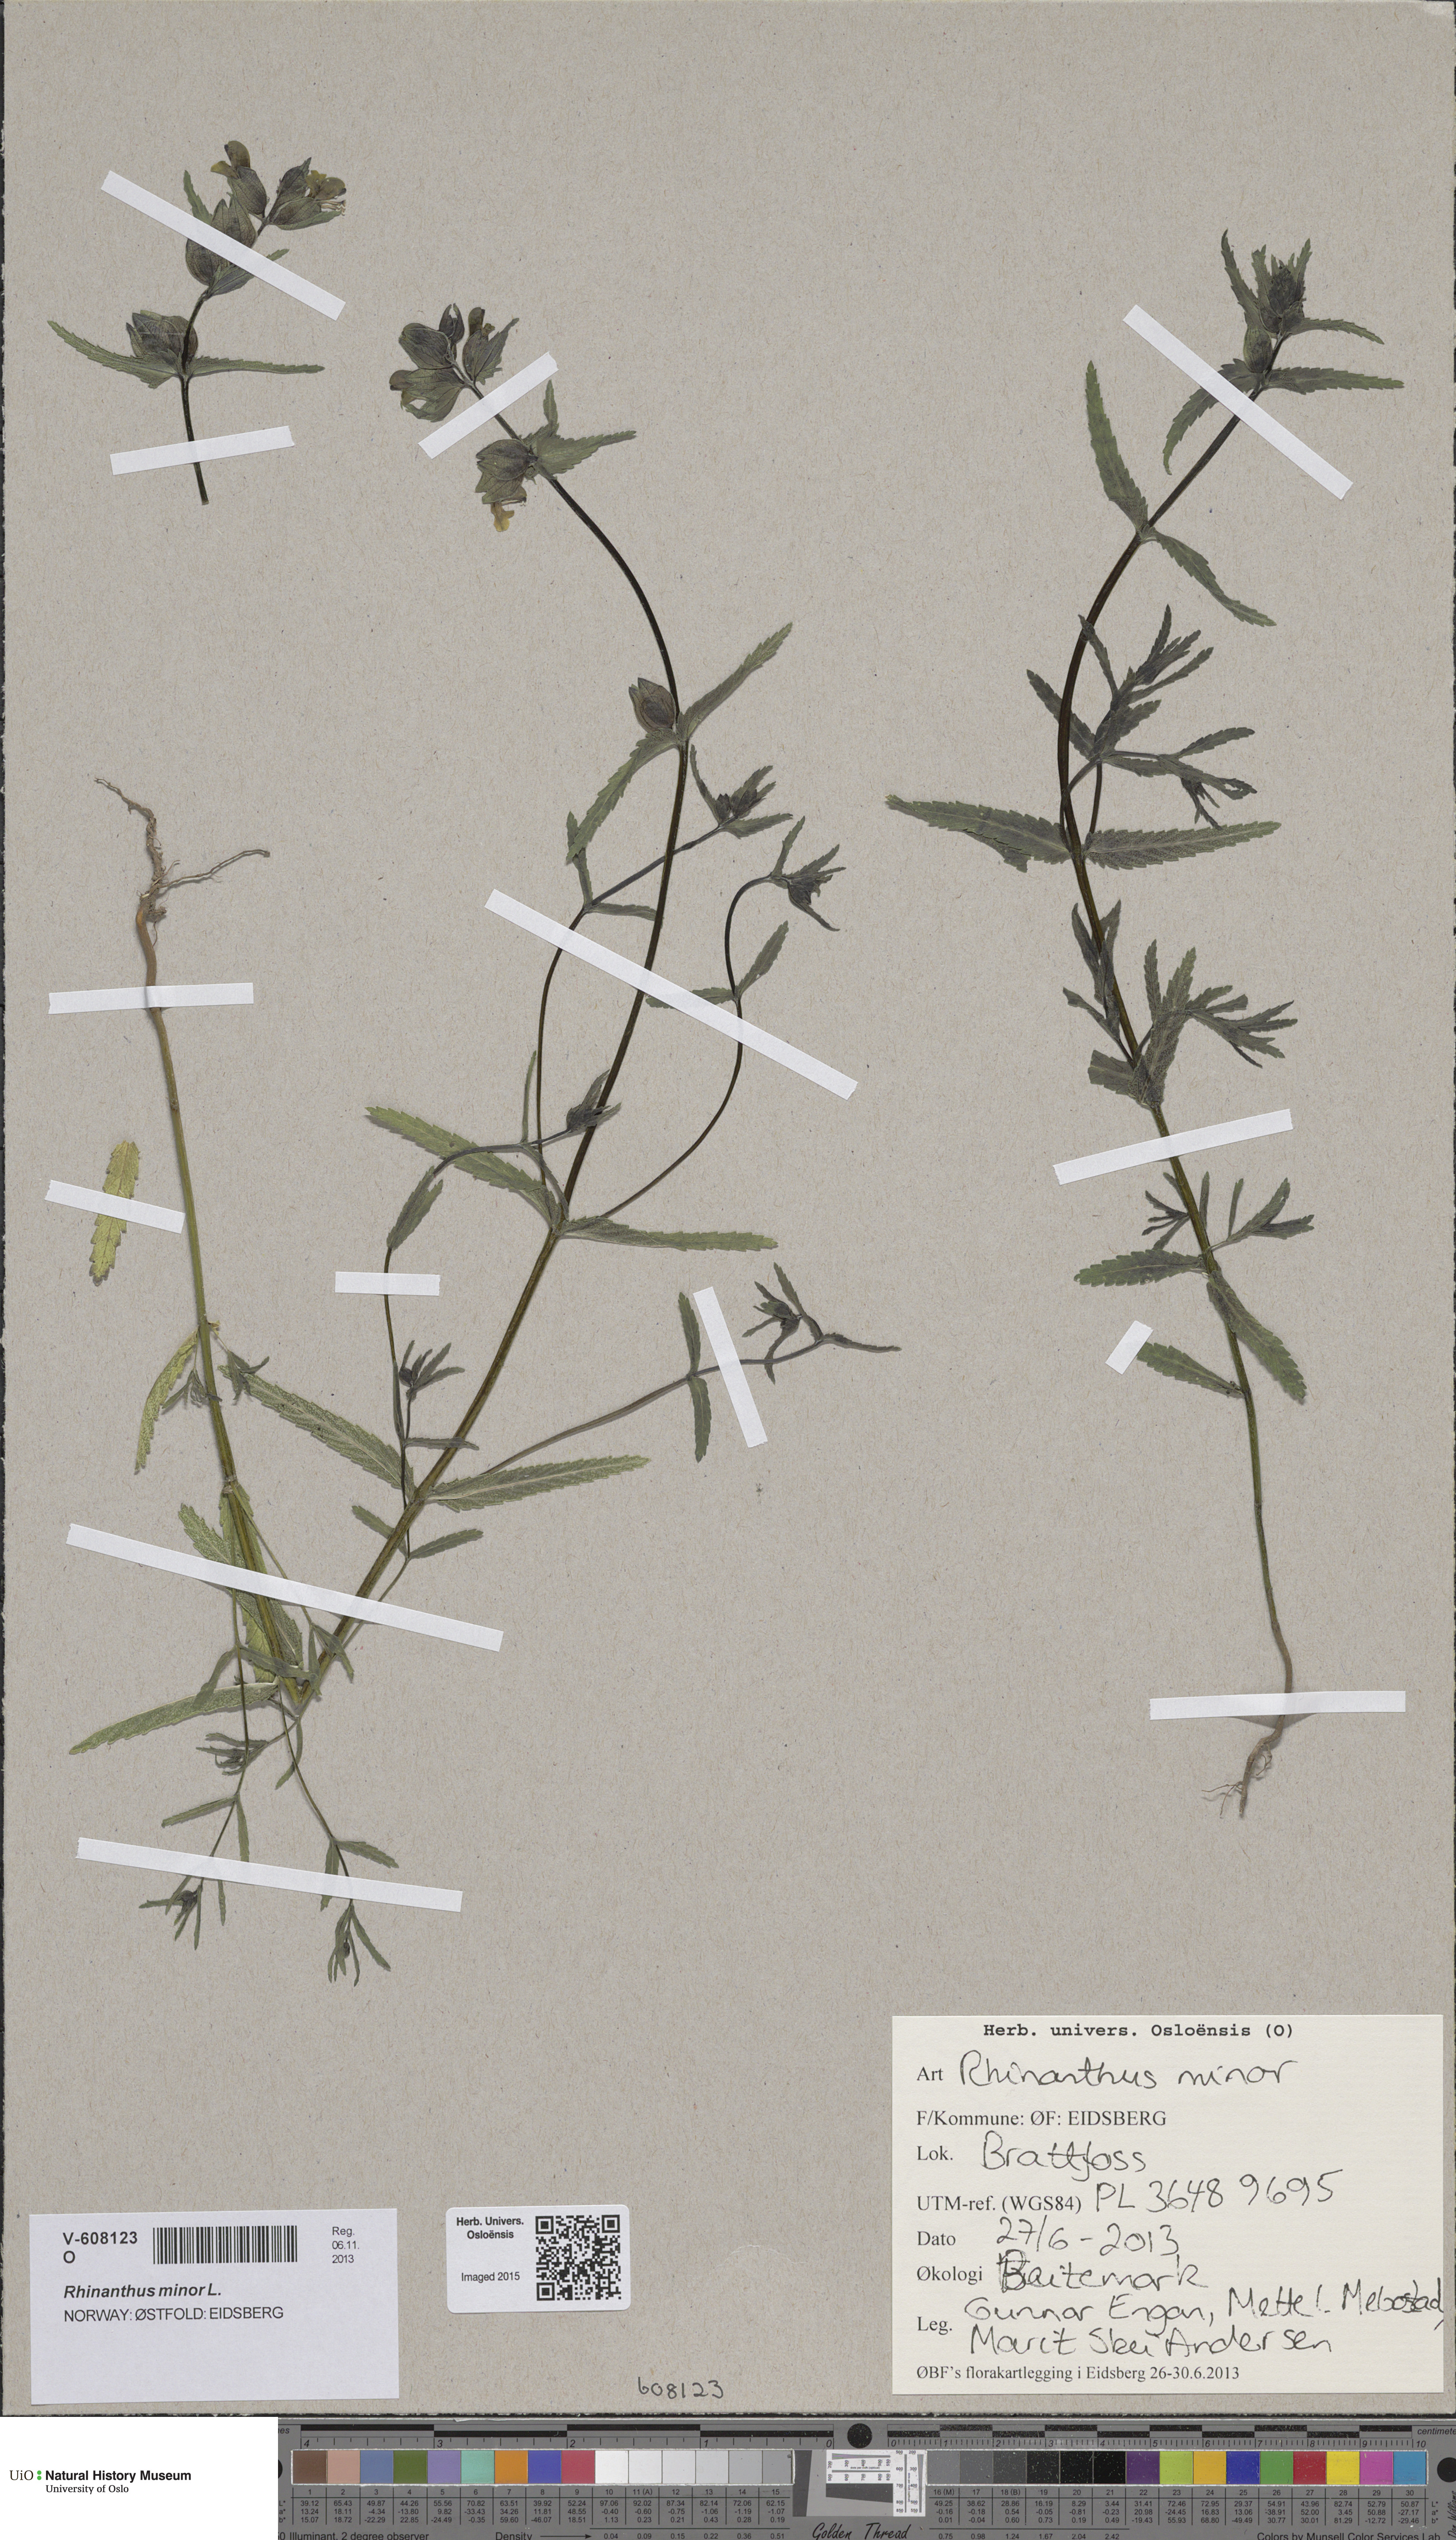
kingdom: Plantae
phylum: Tracheophyta
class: Magnoliopsida
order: Lamiales
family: Orobanchaceae
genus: Rhinanthus
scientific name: Rhinanthus minor
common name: Yellow-rattle
